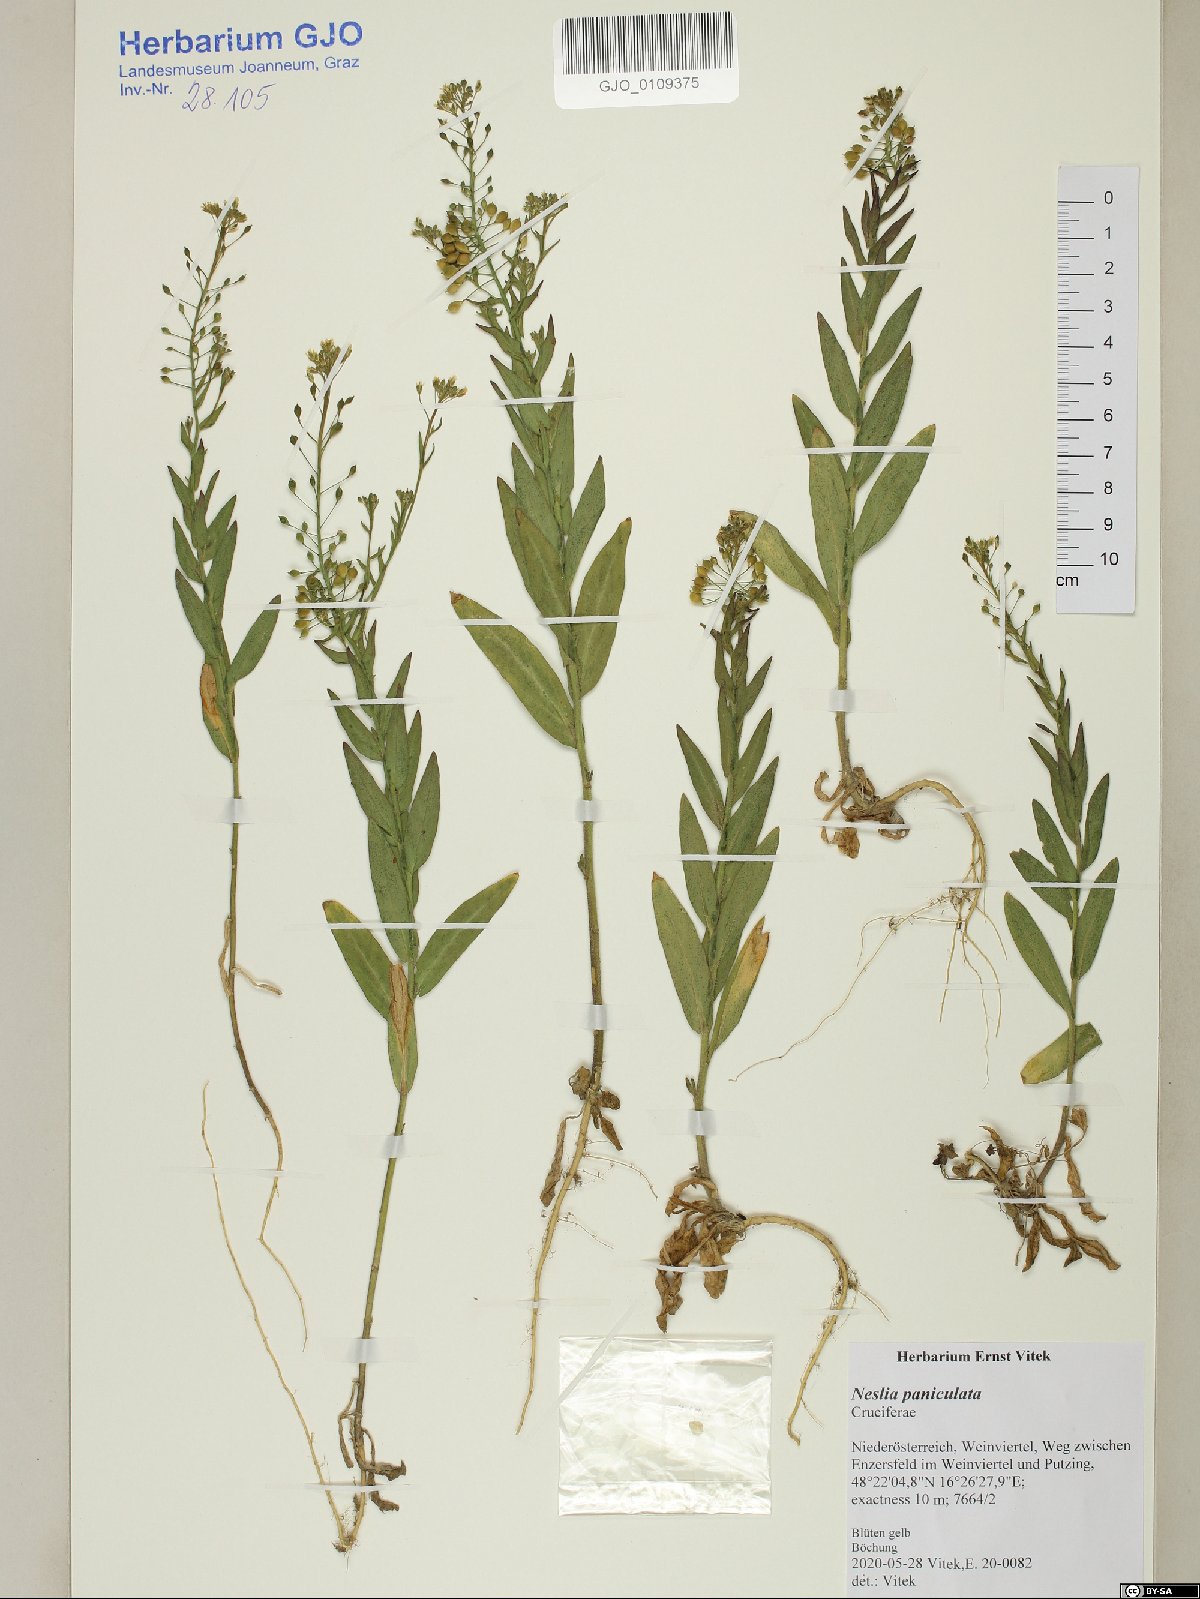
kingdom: Plantae
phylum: Tracheophyta
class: Magnoliopsida
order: Brassicales
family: Brassicaceae
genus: Neslia
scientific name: Neslia paniculata
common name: Ball mustard
